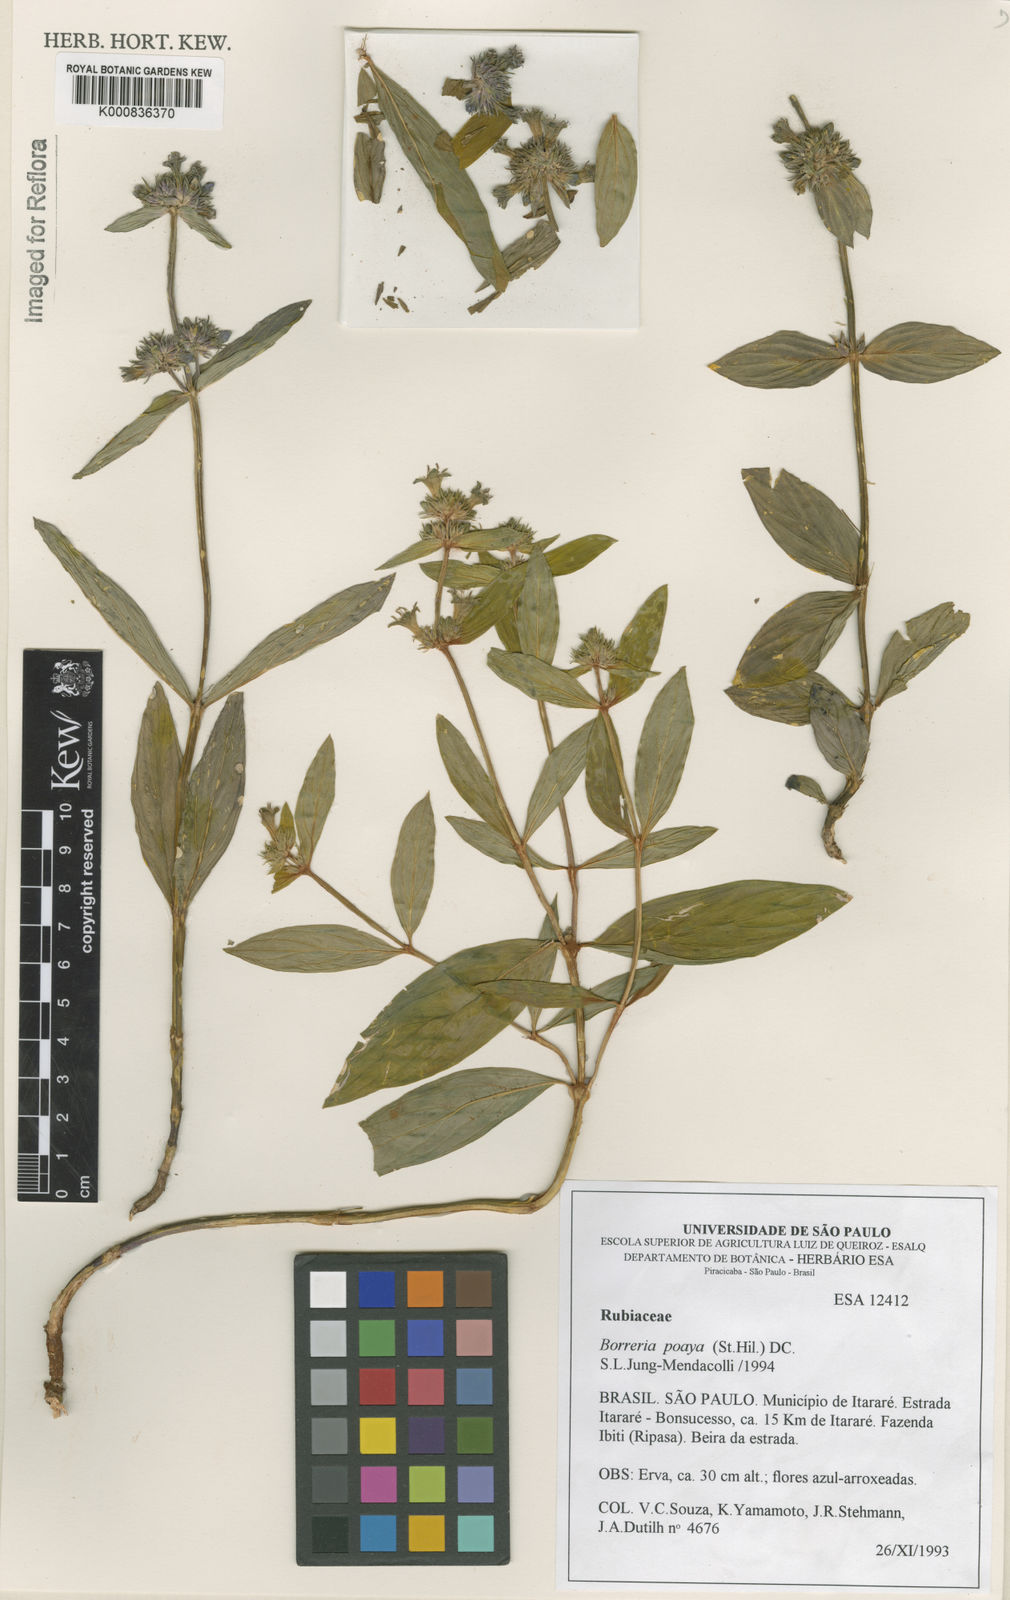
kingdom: Plantae
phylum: Tracheophyta
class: Magnoliopsida
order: Gentianales
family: Rubiaceae
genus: Spermacoce
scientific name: Spermacoce poaya
